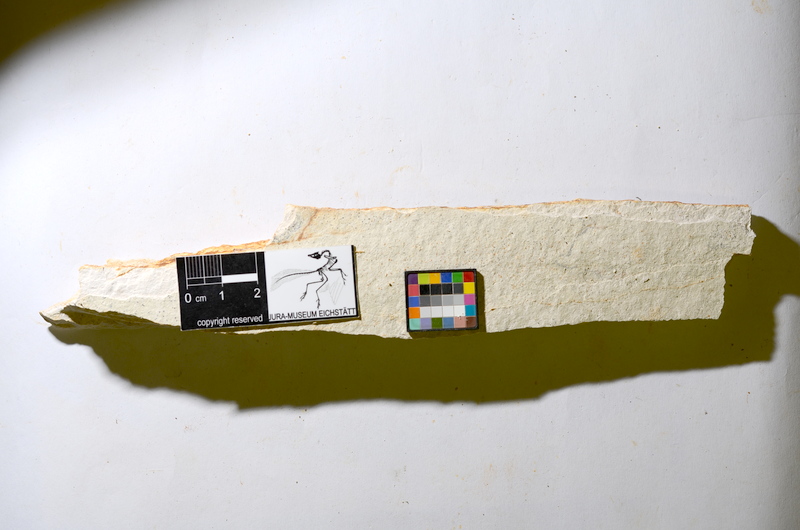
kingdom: Animalia
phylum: Chordata
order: Salmoniformes
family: Orthogonikleithridae
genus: Orthogonikleithrus
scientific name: Orthogonikleithrus hoelli
